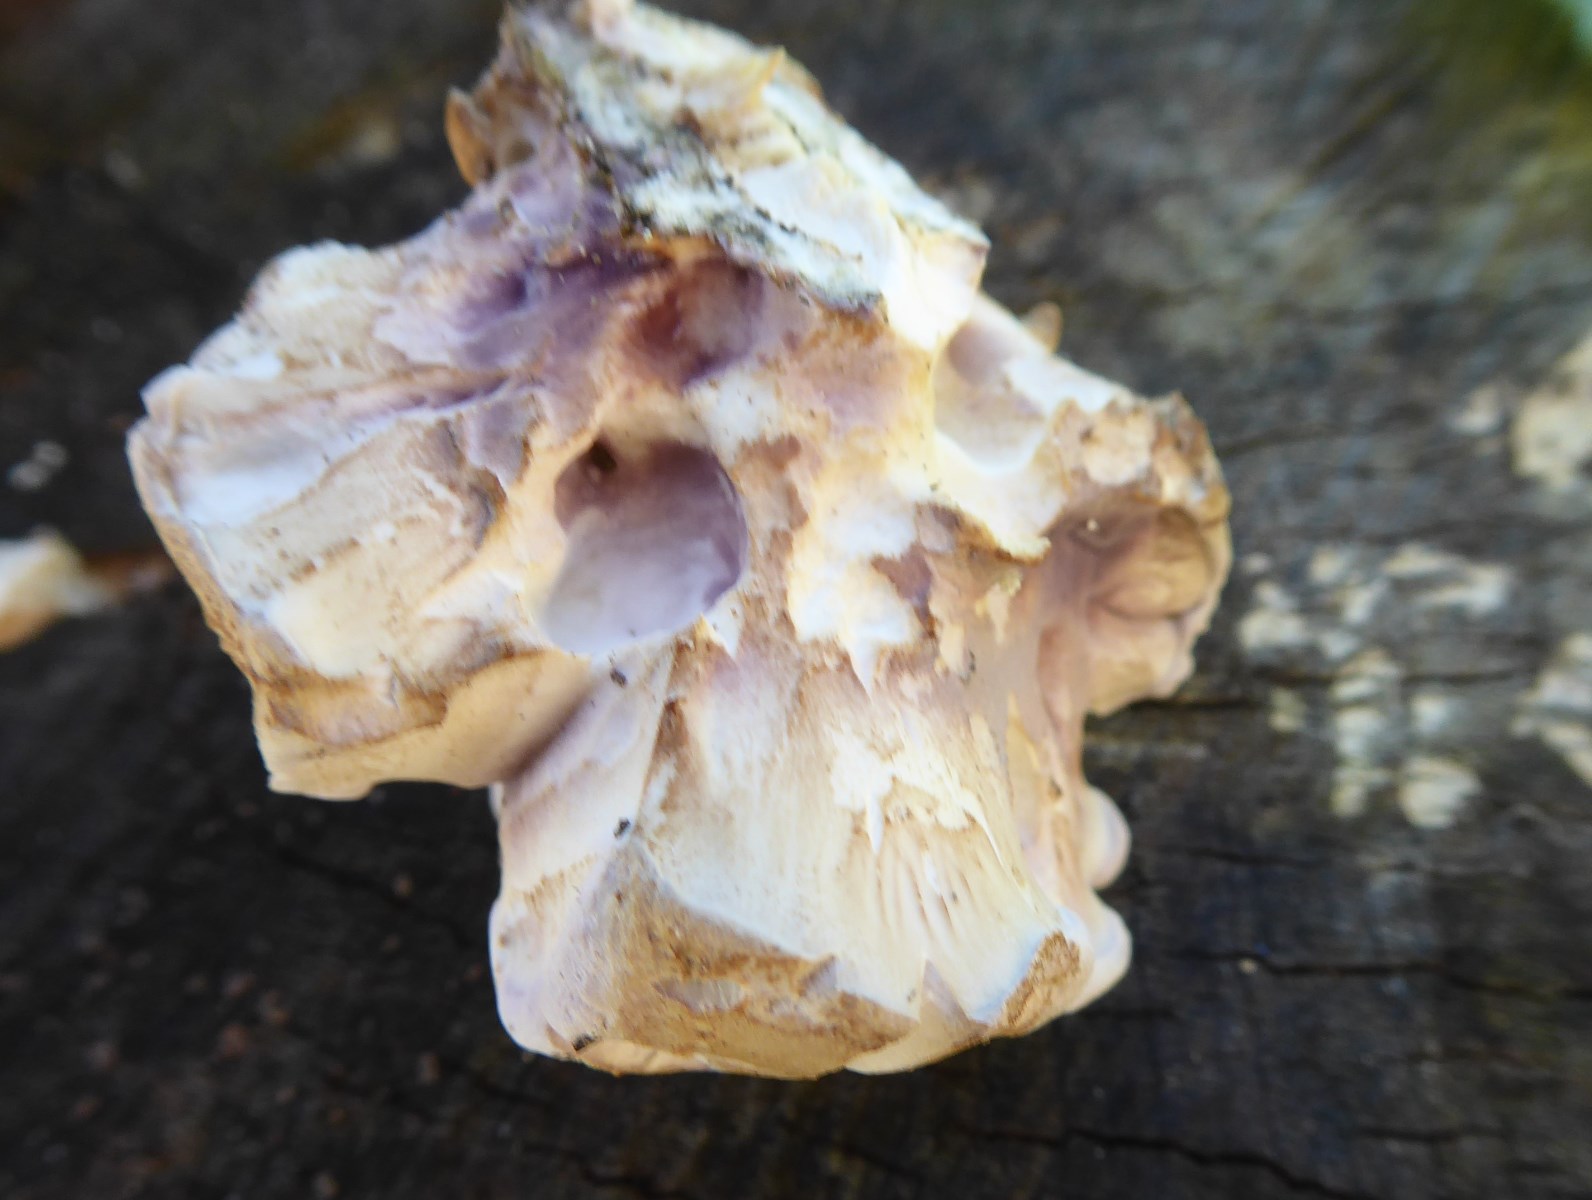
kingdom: Fungi
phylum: Basidiomycota
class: Agaricomycetes
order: Polyporales
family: Panaceae
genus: Panus
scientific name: Panus conchatus
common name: filtstokket læderhat
